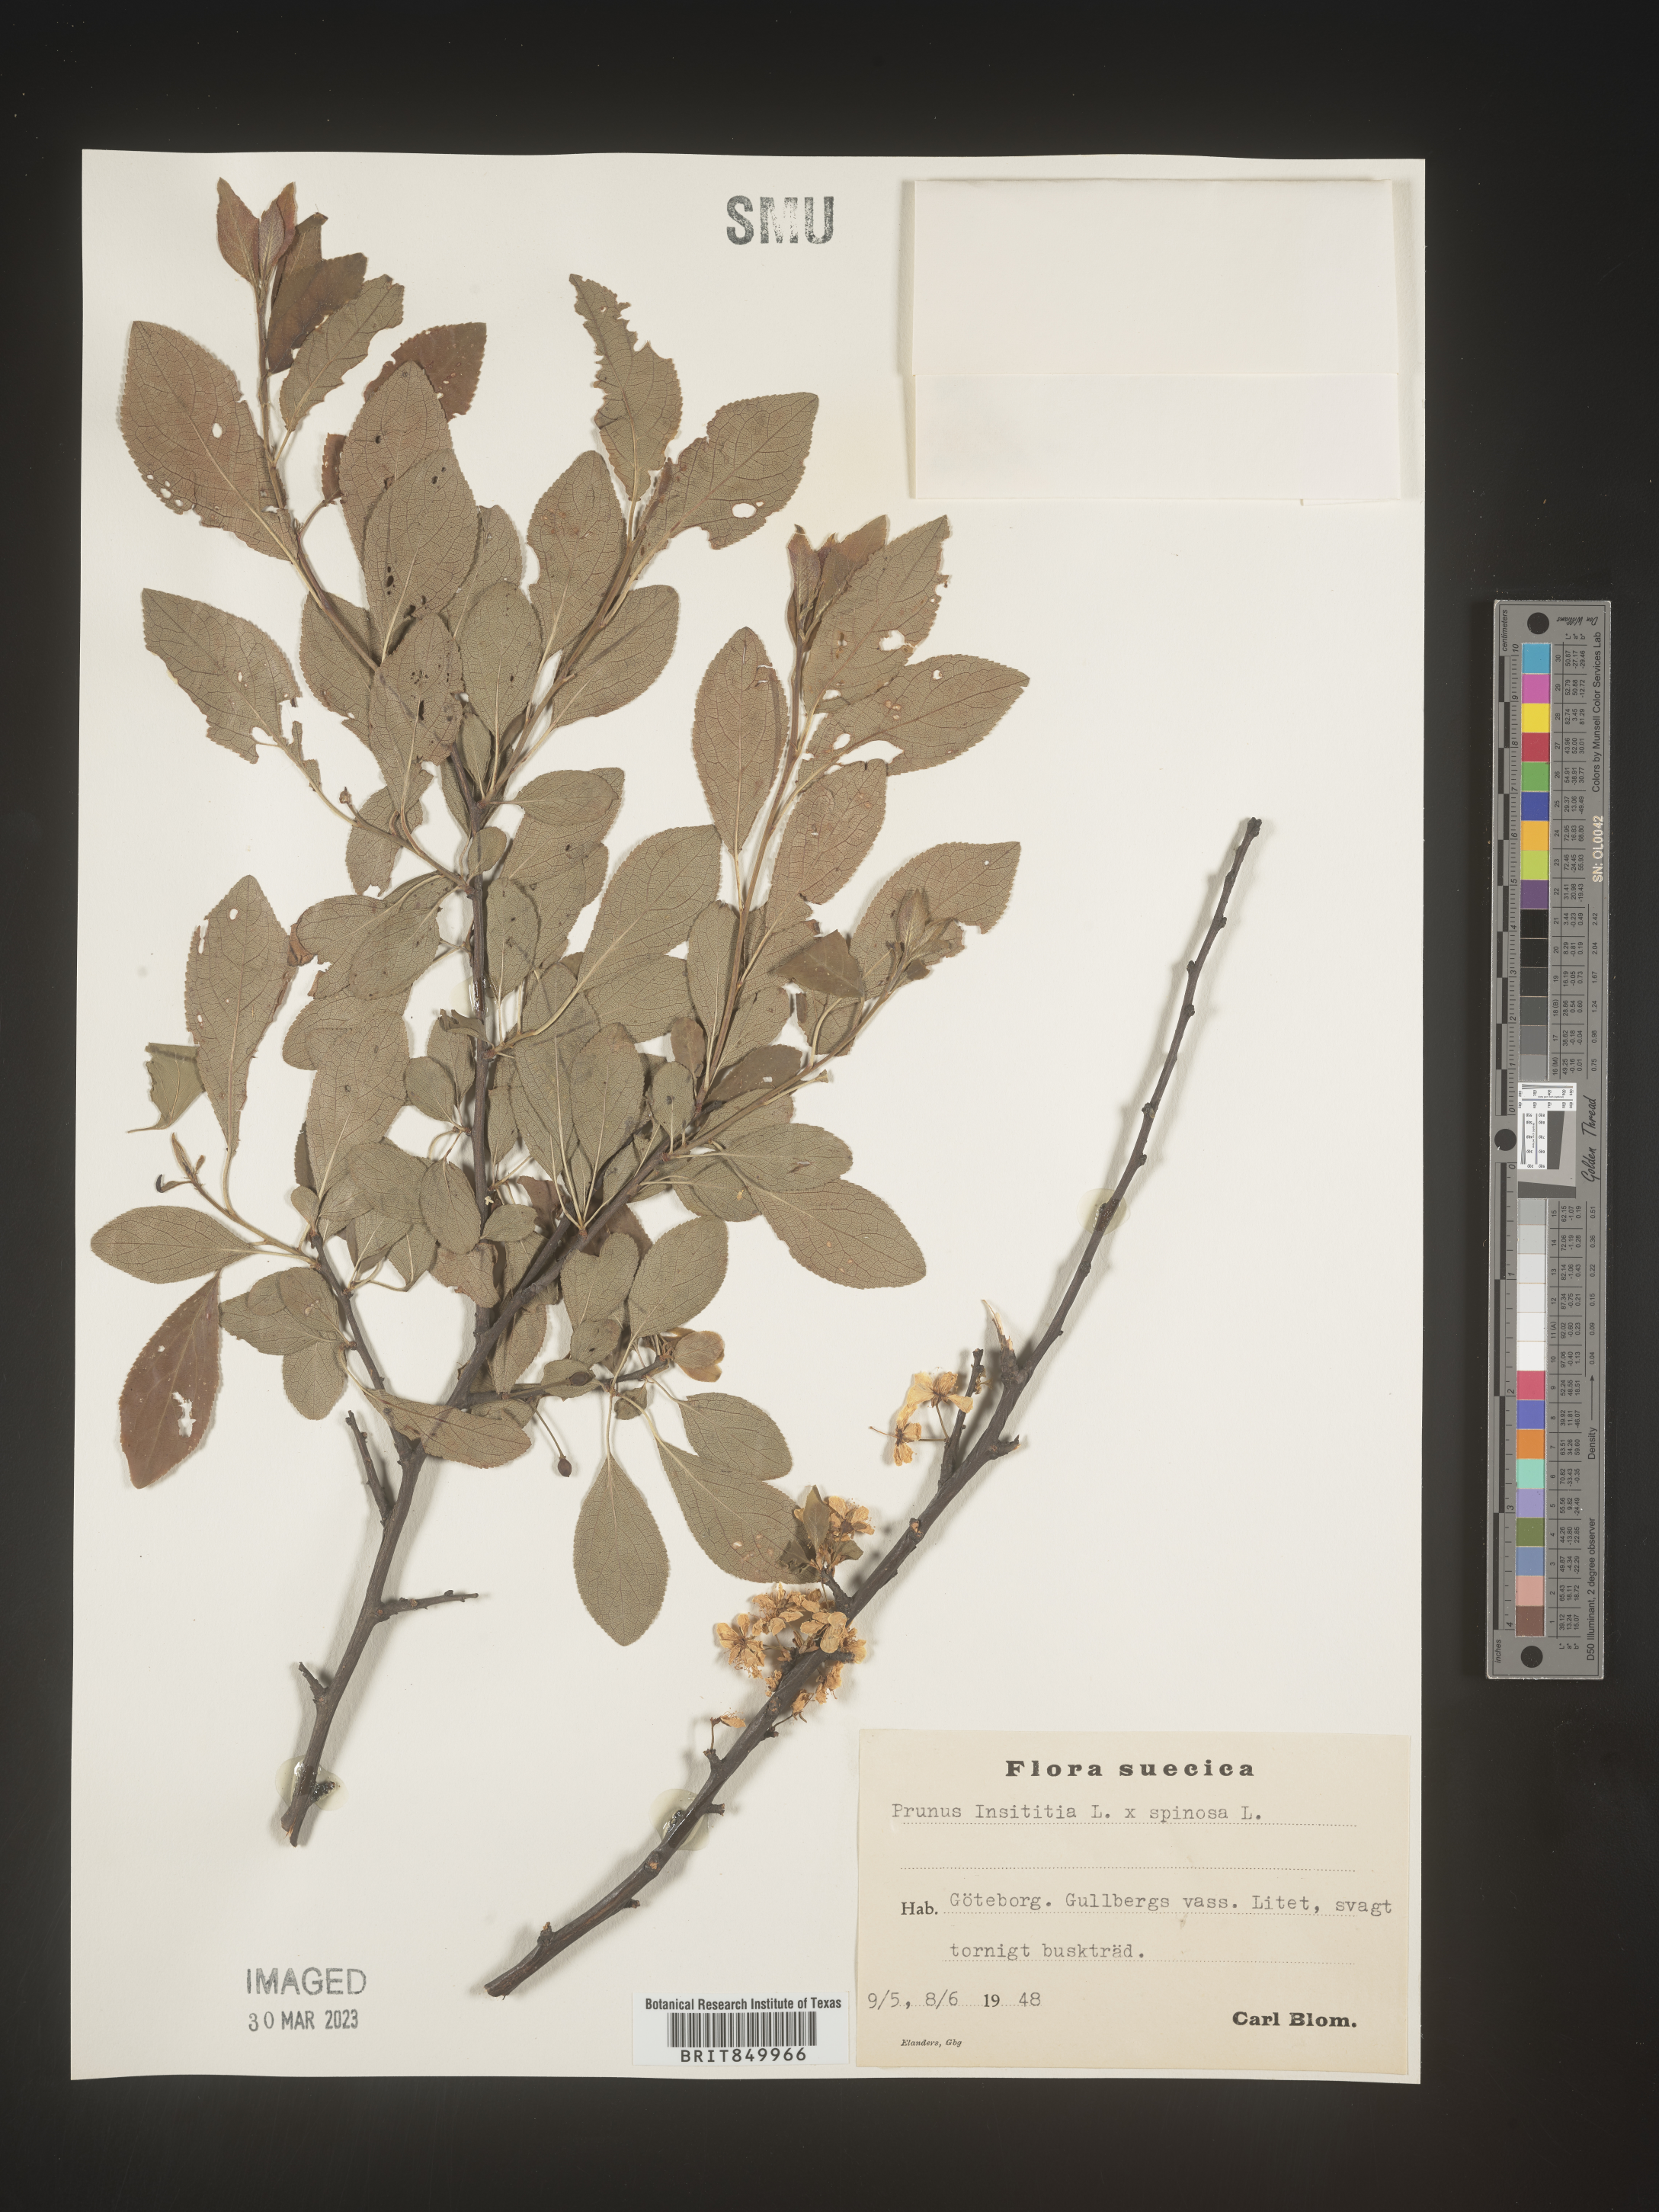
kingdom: Plantae
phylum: Tracheophyta
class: Magnoliopsida
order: Rosales
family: Rosaceae
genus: Prunus
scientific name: Prunus
